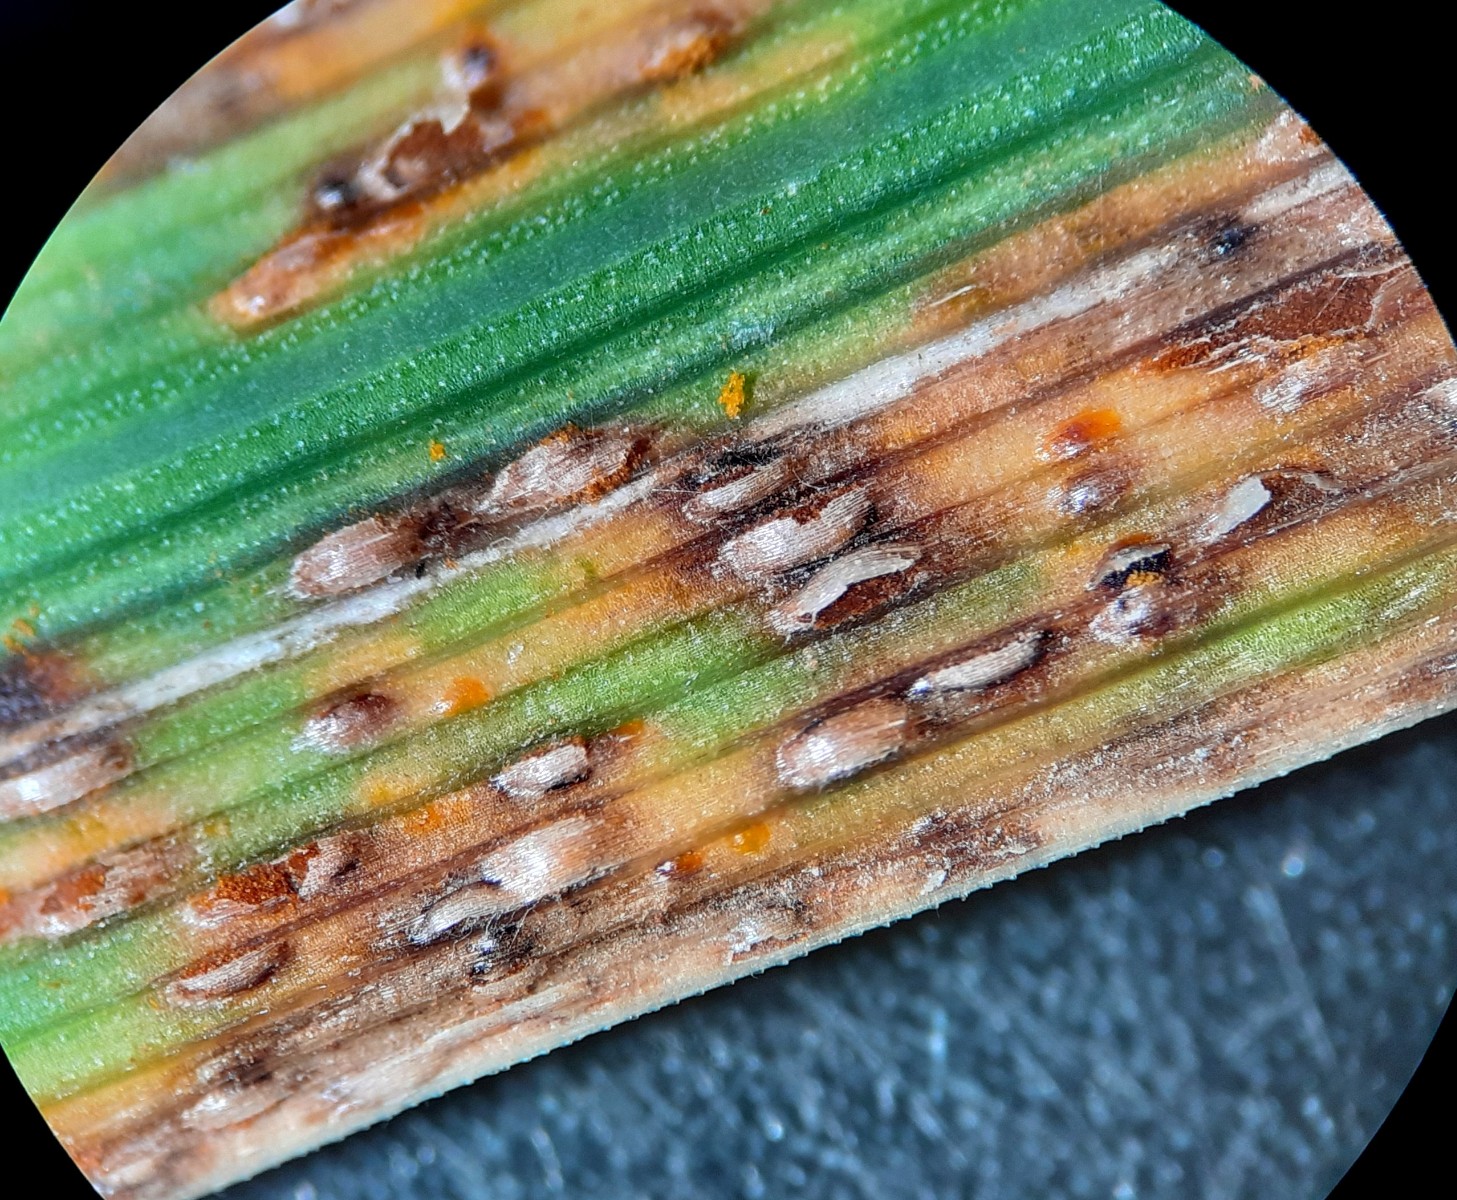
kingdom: Fungi
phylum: Basidiomycota
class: Pucciniomycetes
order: Pucciniales
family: Pucciniaceae
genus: Puccinia
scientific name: Puccinia brachypodii
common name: Rust fungus
